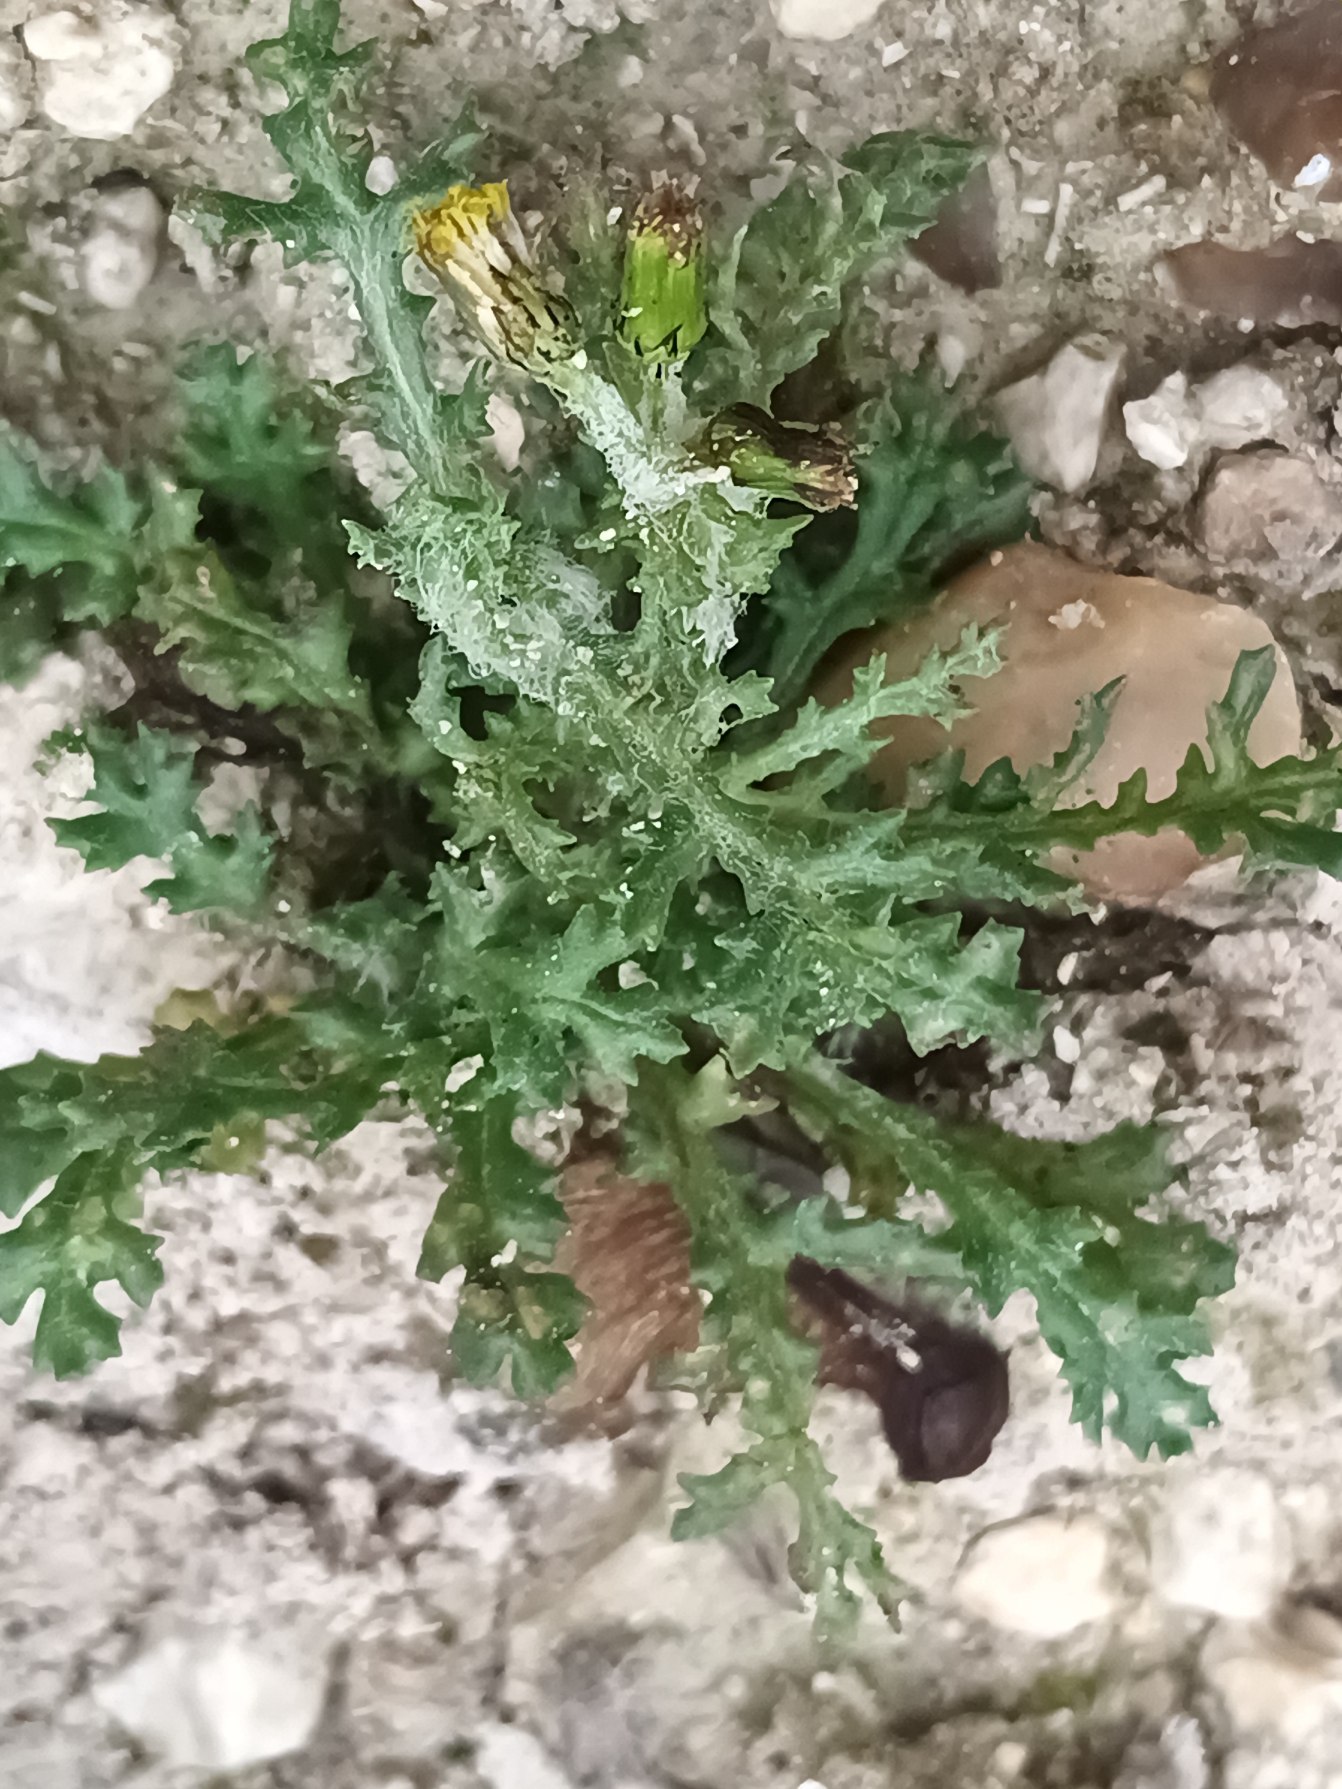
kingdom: Plantae
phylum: Tracheophyta
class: Magnoliopsida
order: Asterales
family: Asteraceae
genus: Senecio
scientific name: Senecio vulgaris
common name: Almindelig brandbæger
